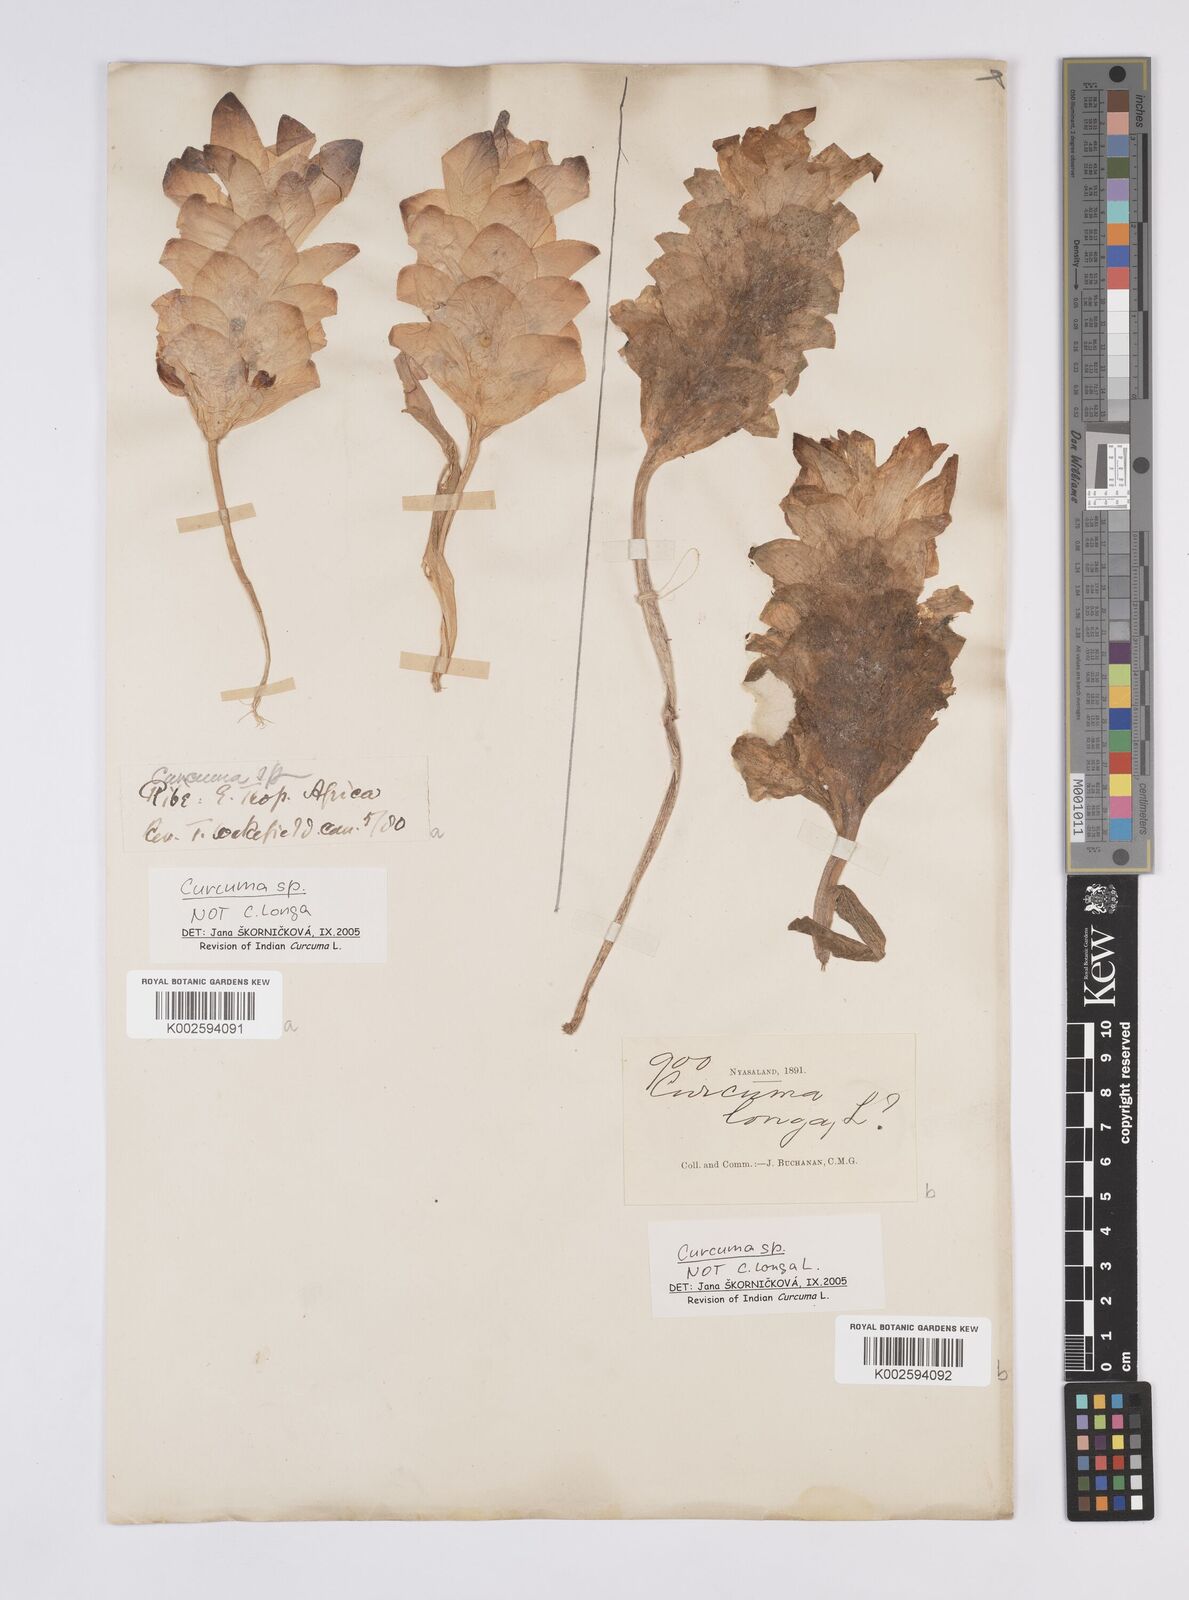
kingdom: Plantae
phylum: Tracheophyta
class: Liliopsida
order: Zingiberales
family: Zingiberaceae
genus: Curcuma
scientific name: Curcuma
